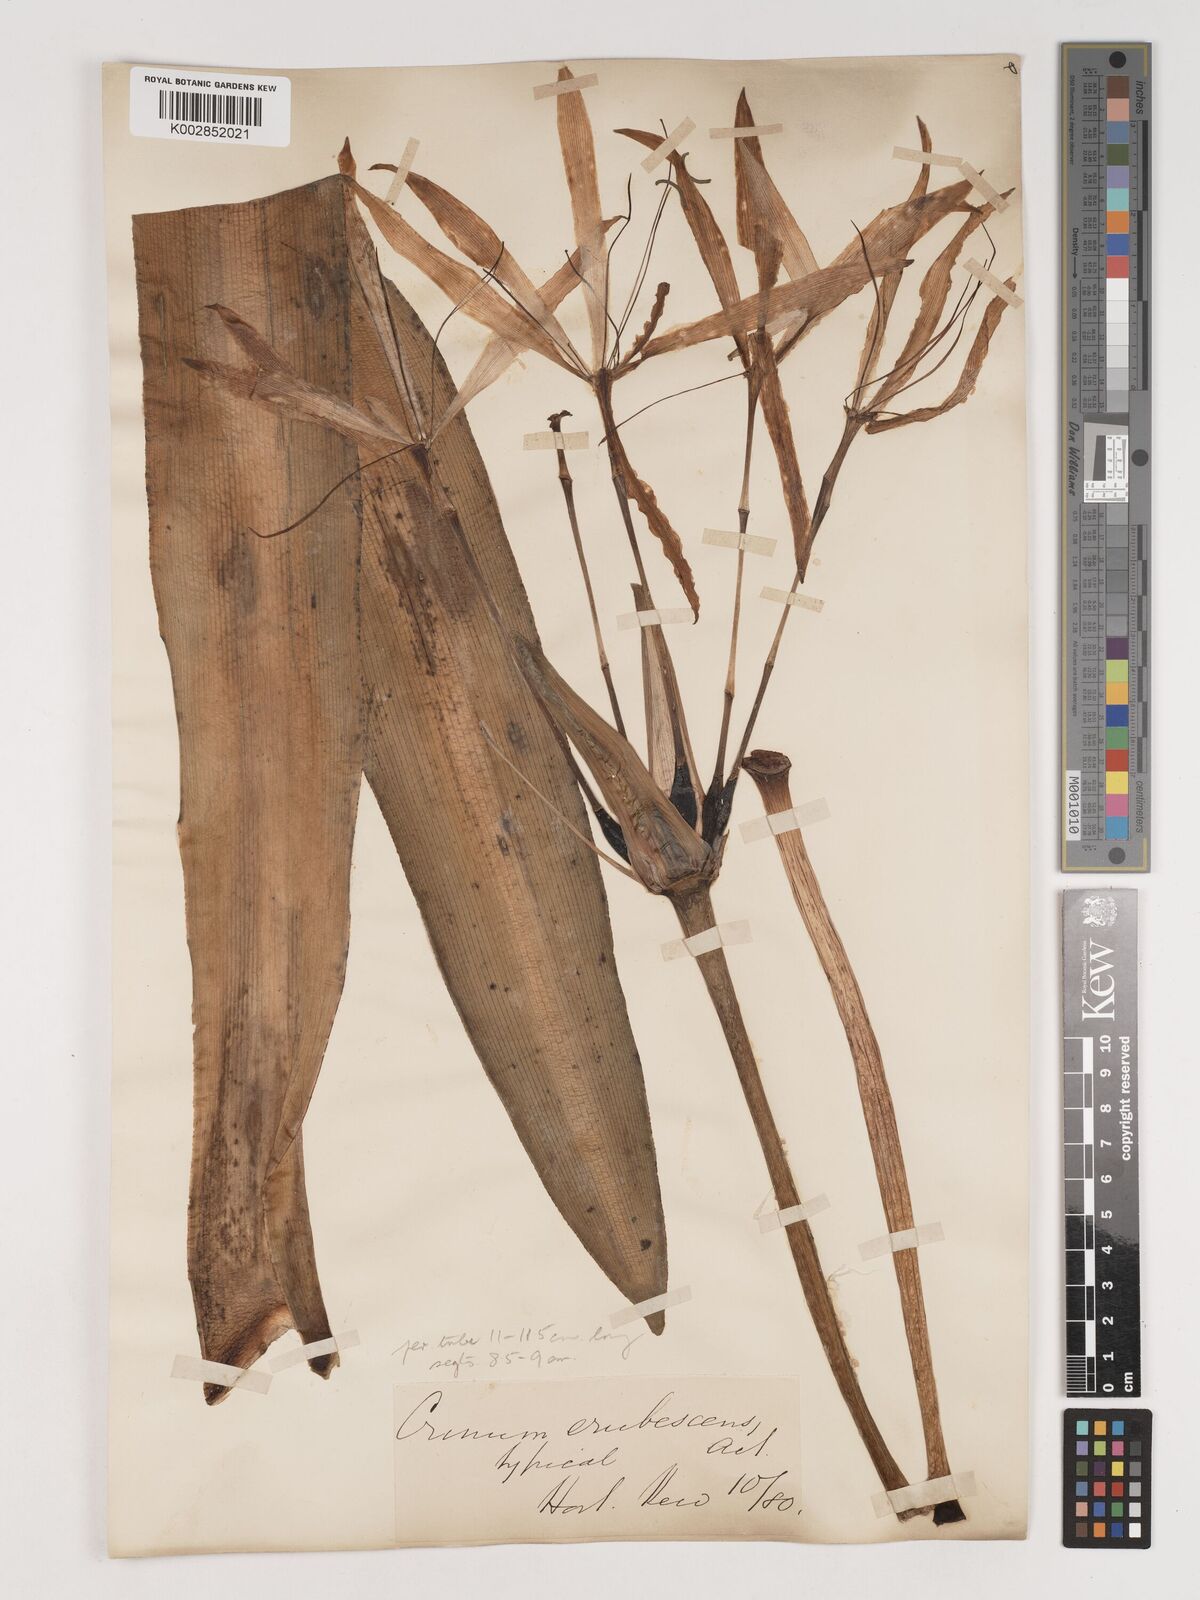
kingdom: Plantae
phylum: Tracheophyta
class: Liliopsida
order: Asparagales
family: Amaryllidaceae
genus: Crinum
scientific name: Crinum erubescens
